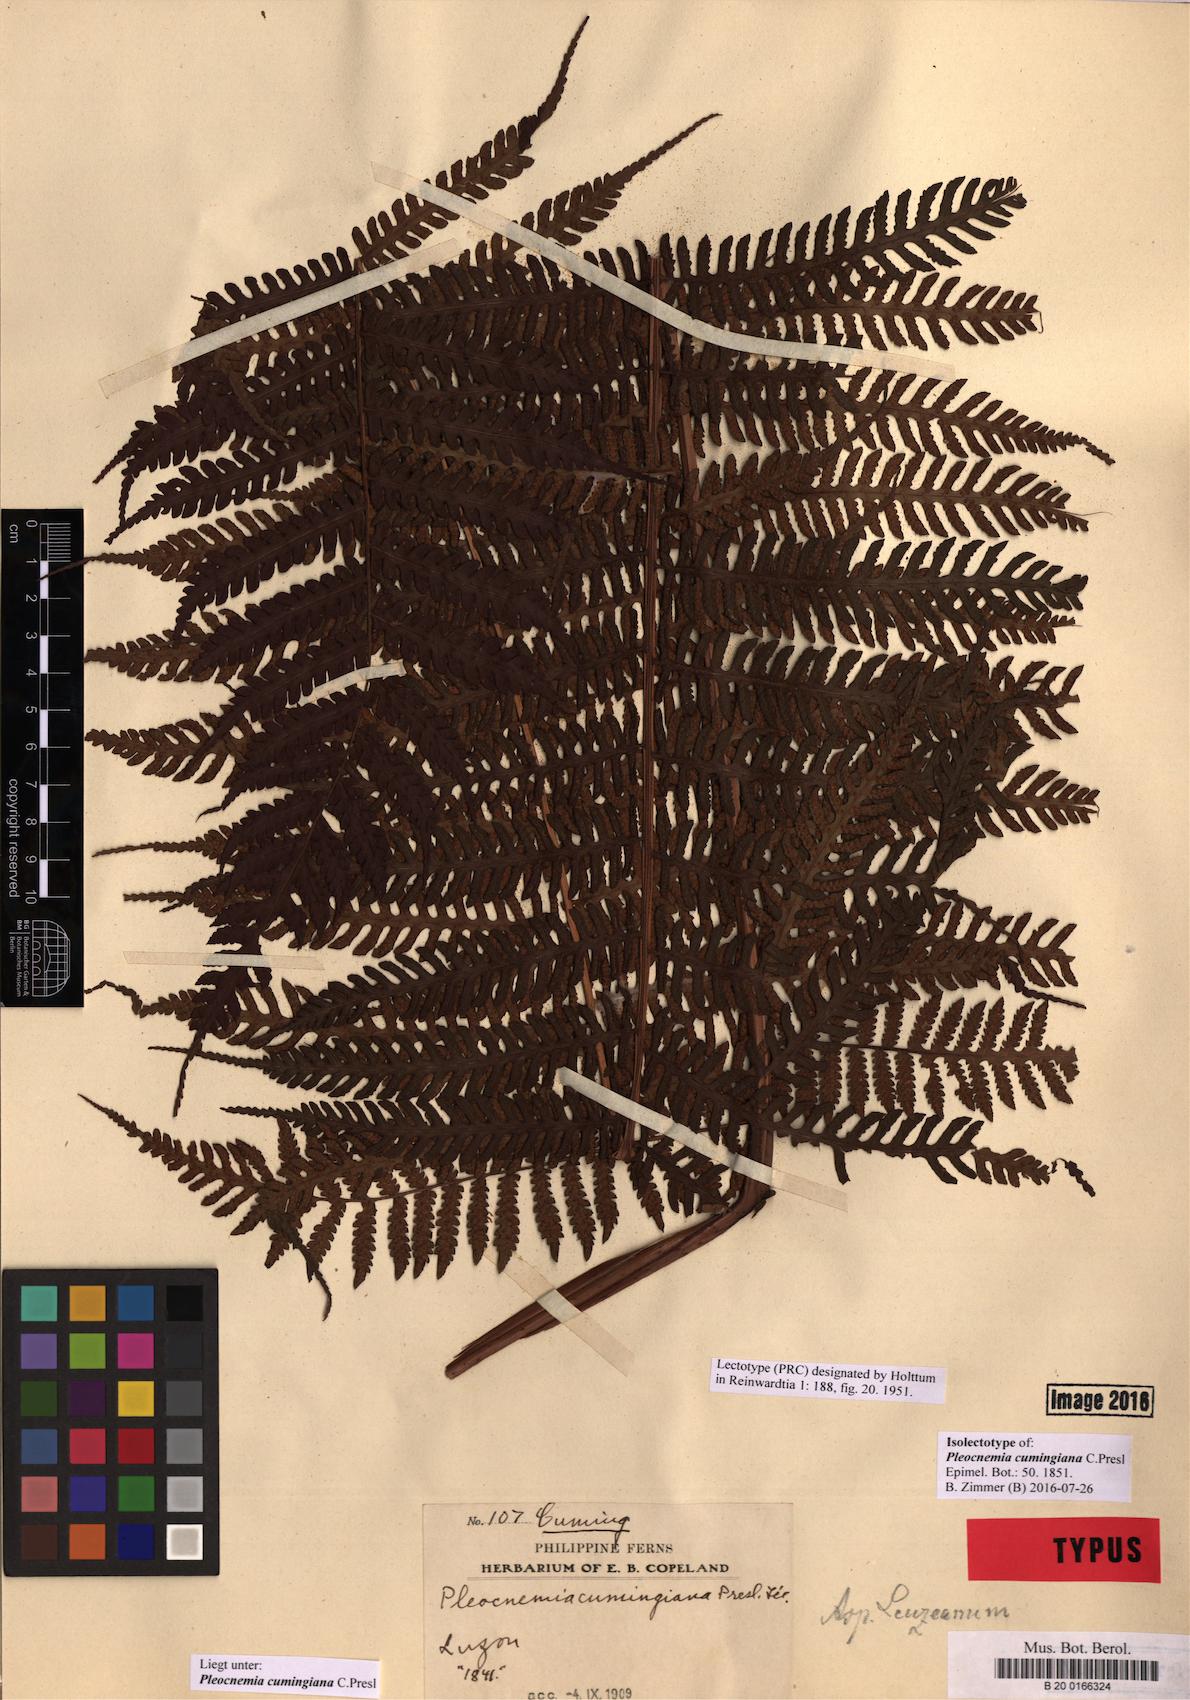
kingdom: Plantae
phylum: Tracheophyta
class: Polypodiopsida
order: Polypodiales
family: Dryopteridaceae
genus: Pleocnemia
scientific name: Pleocnemia cumingiana
